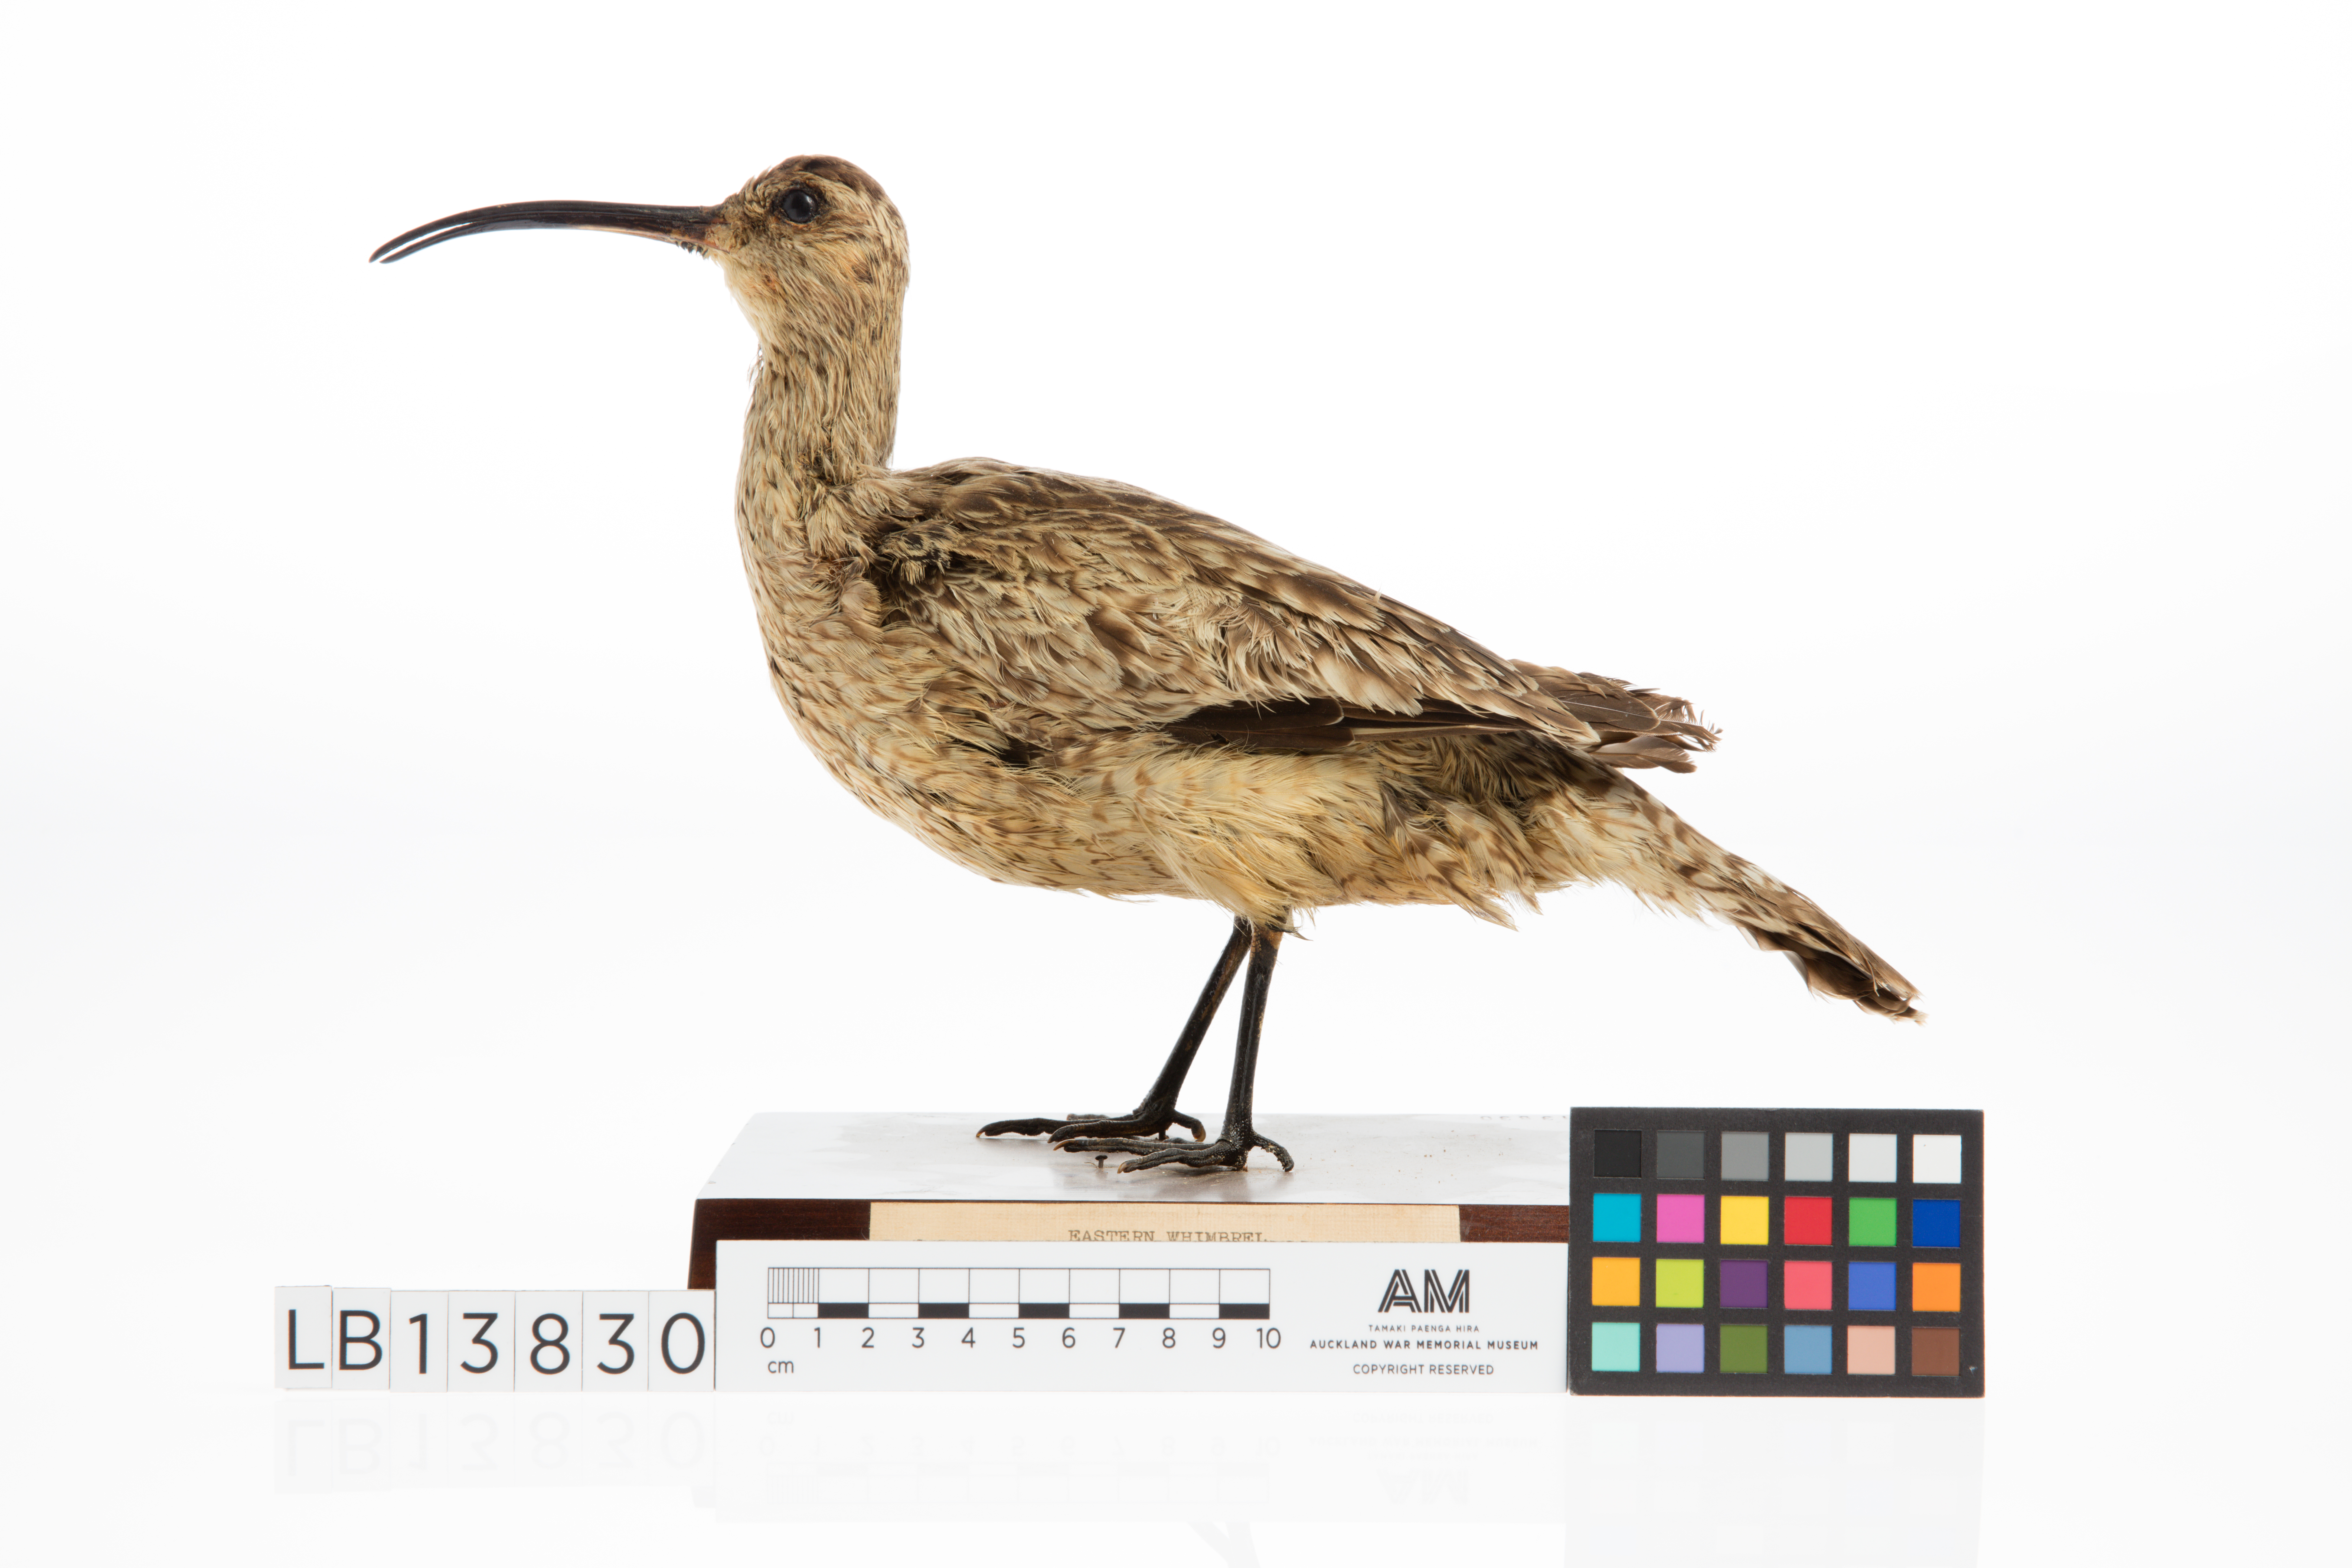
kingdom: Animalia
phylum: Chordata
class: Aves
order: Charadriiformes
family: Scolopacidae
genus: Numenius
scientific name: Numenius phaeopus
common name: Whimbrel
